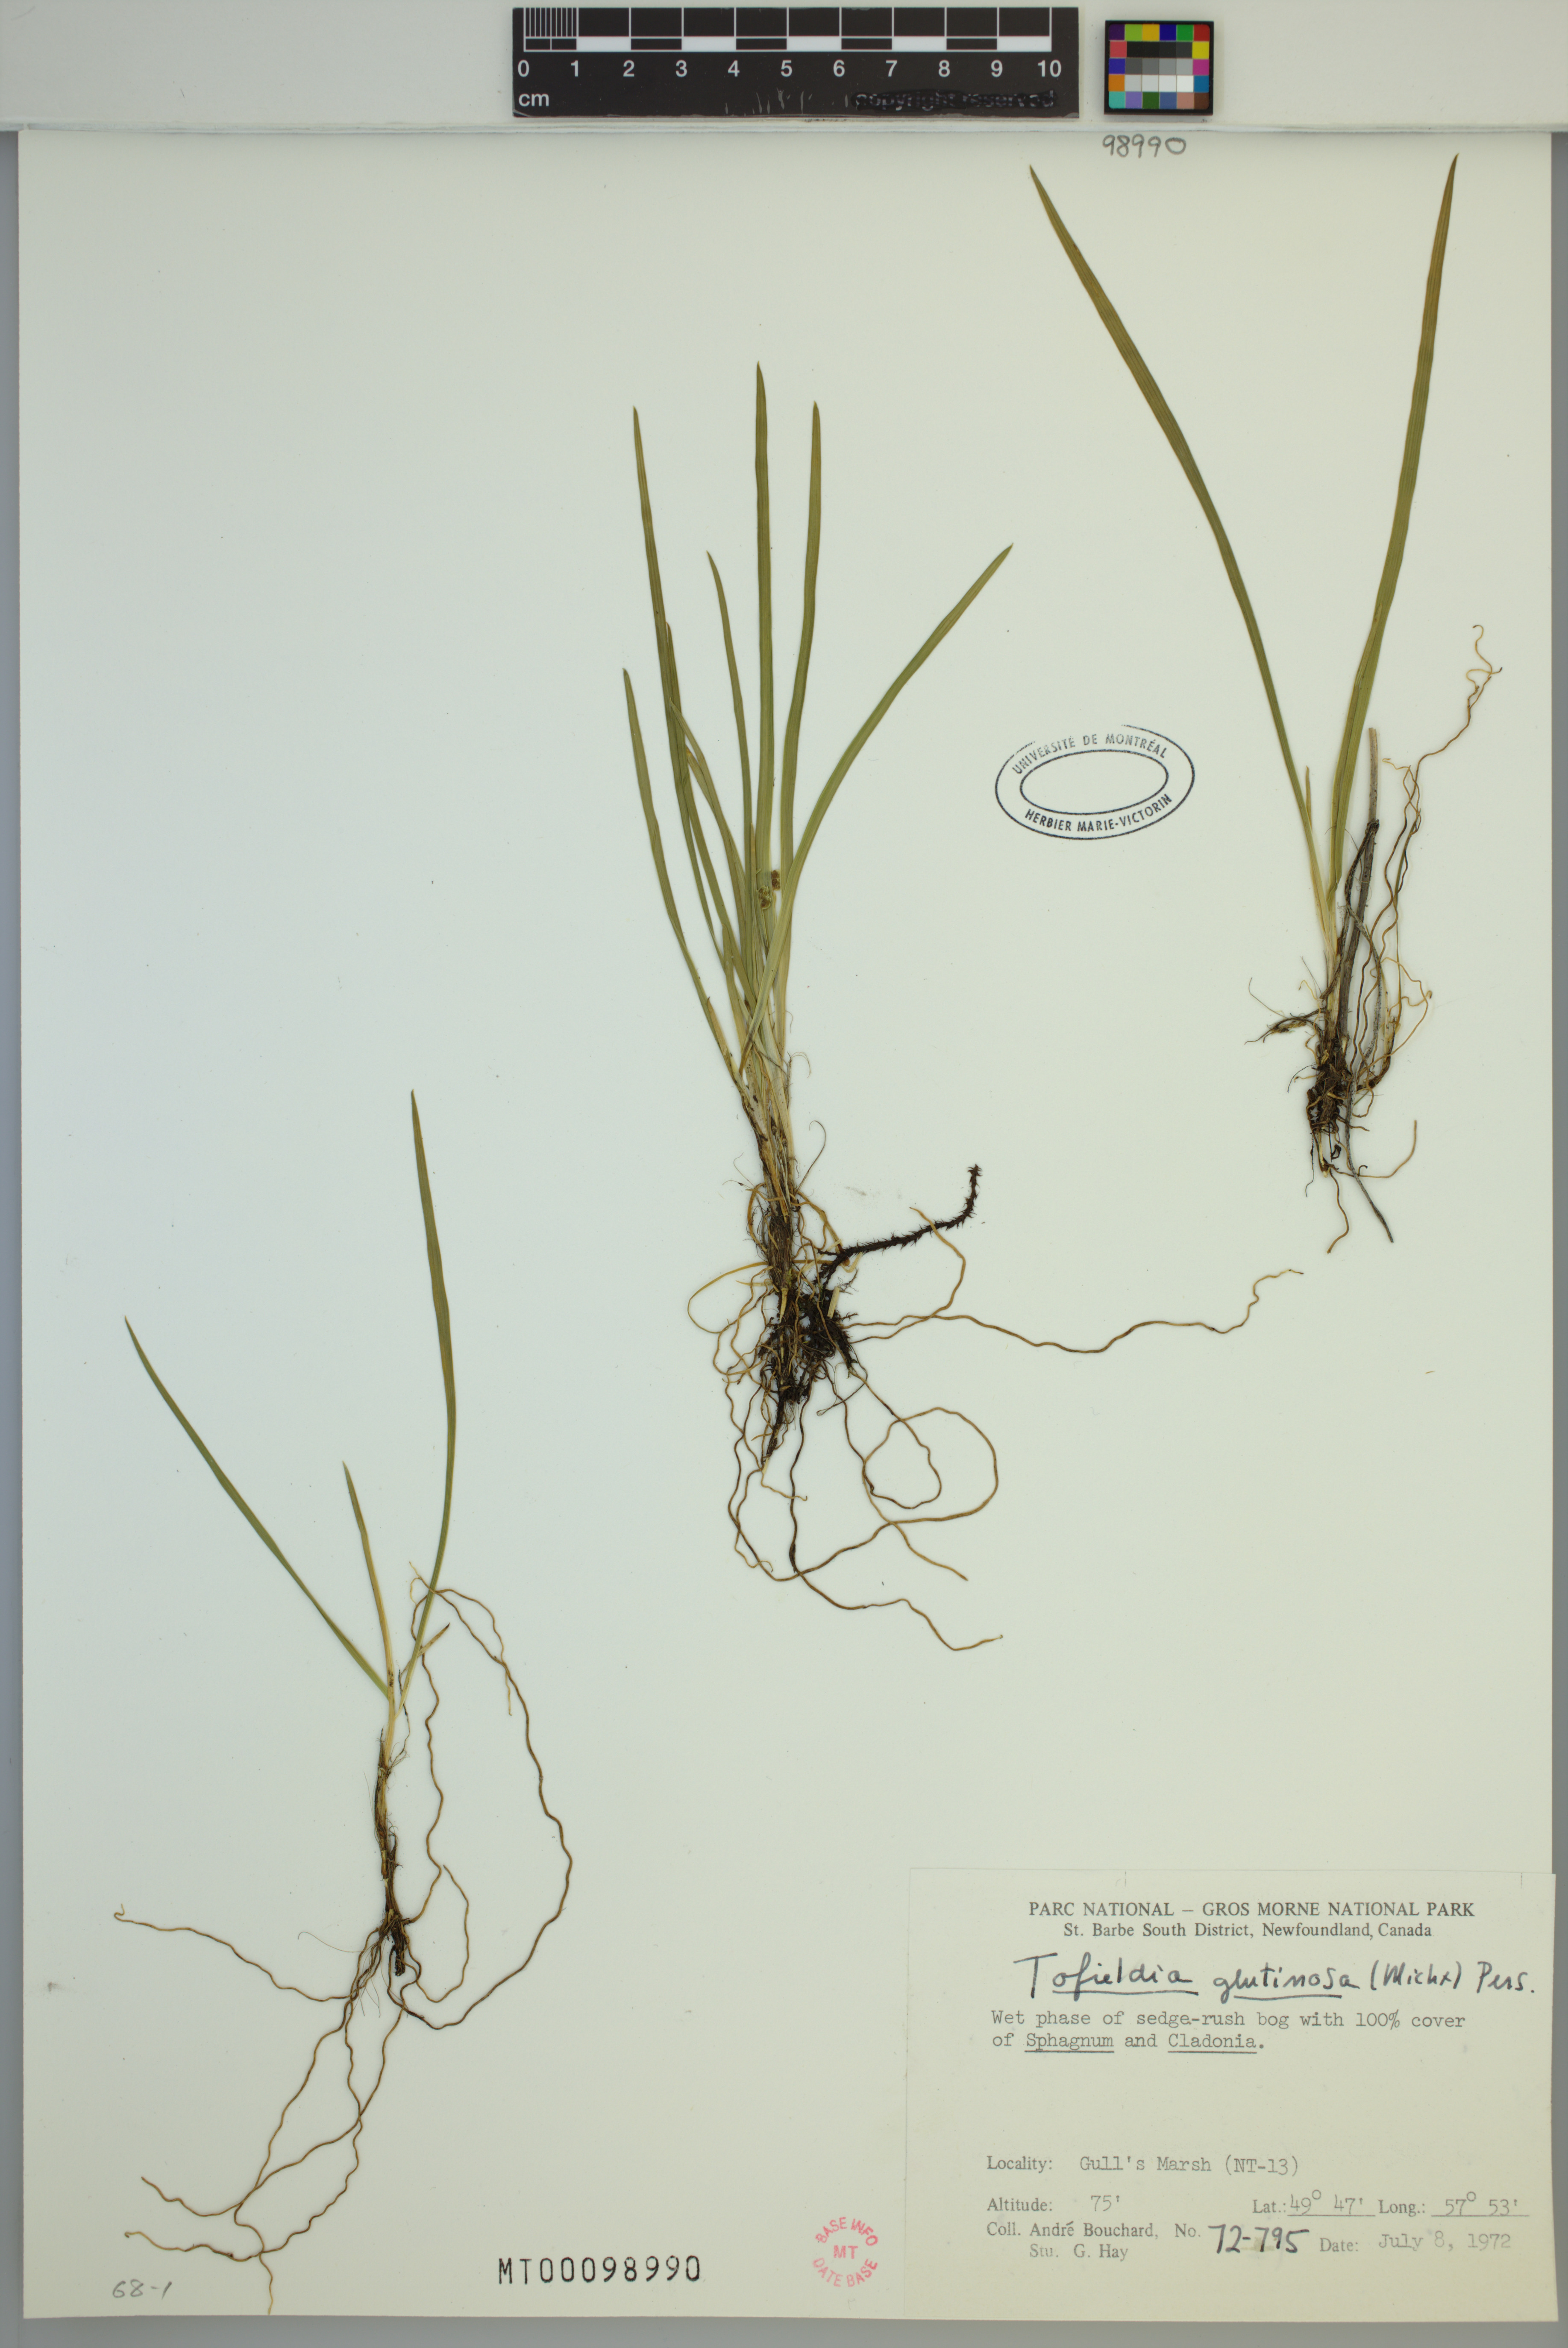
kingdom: Plantae
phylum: Tracheophyta
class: Liliopsida
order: Alismatales
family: Tofieldiaceae
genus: Triantha
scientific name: Triantha glutinosa
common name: Glutinous tofieldia
